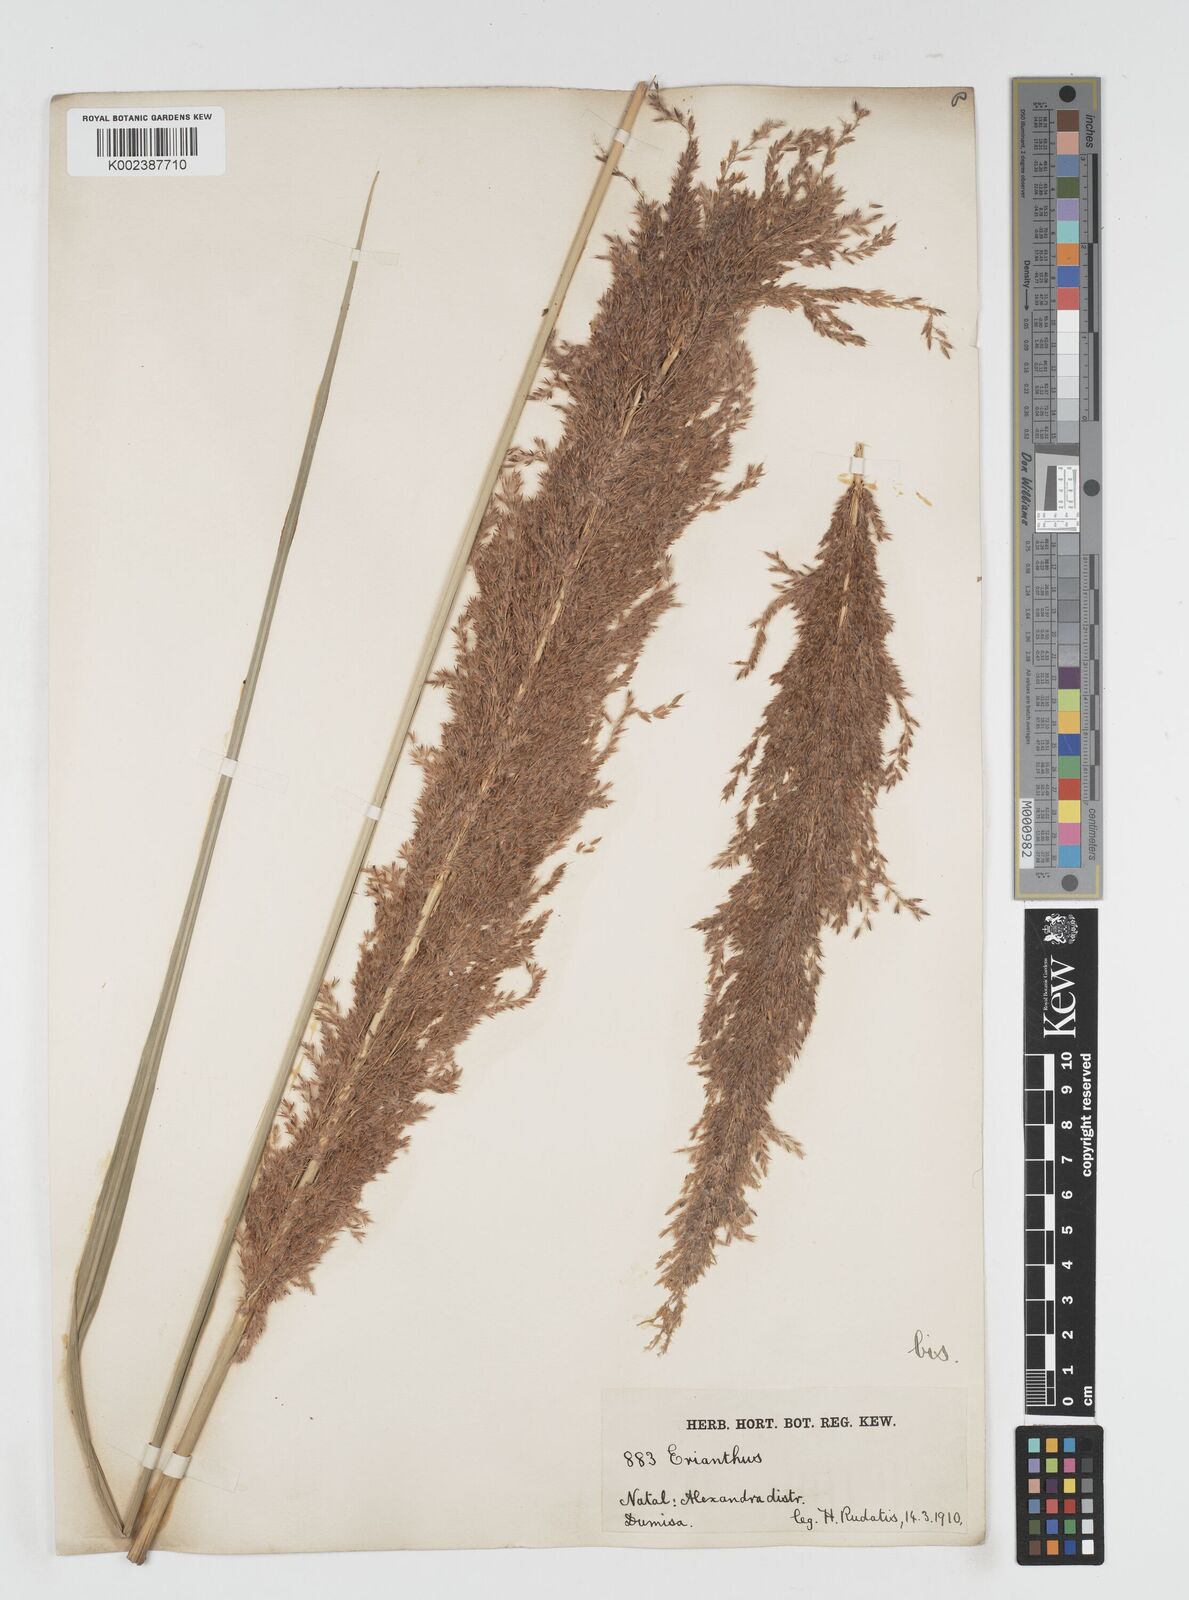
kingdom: Plantae
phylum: Tracheophyta
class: Liliopsida
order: Poales
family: Poaceae
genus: Miscanthus
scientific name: Miscanthus ecklonii
